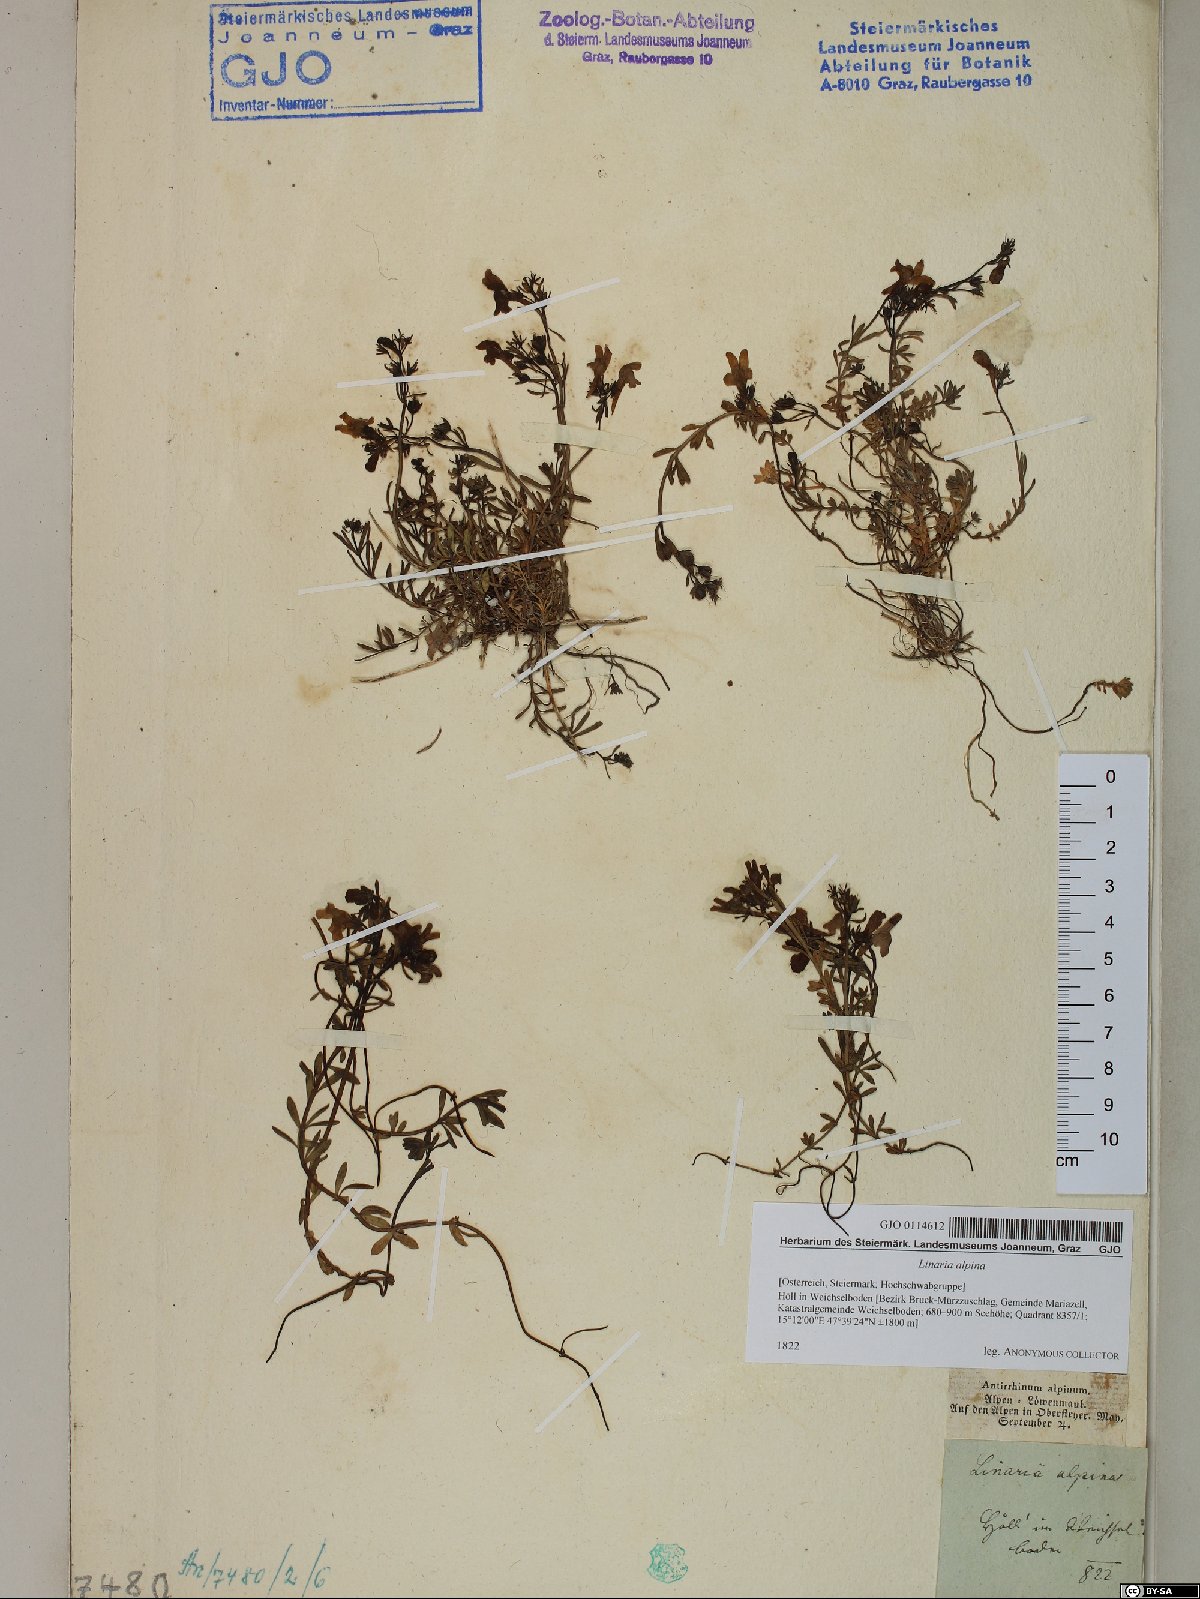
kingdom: Plantae
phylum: Tracheophyta
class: Magnoliopsida
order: Lamiales
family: Plantaginaceae
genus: Linaria
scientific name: Linaria alpina
